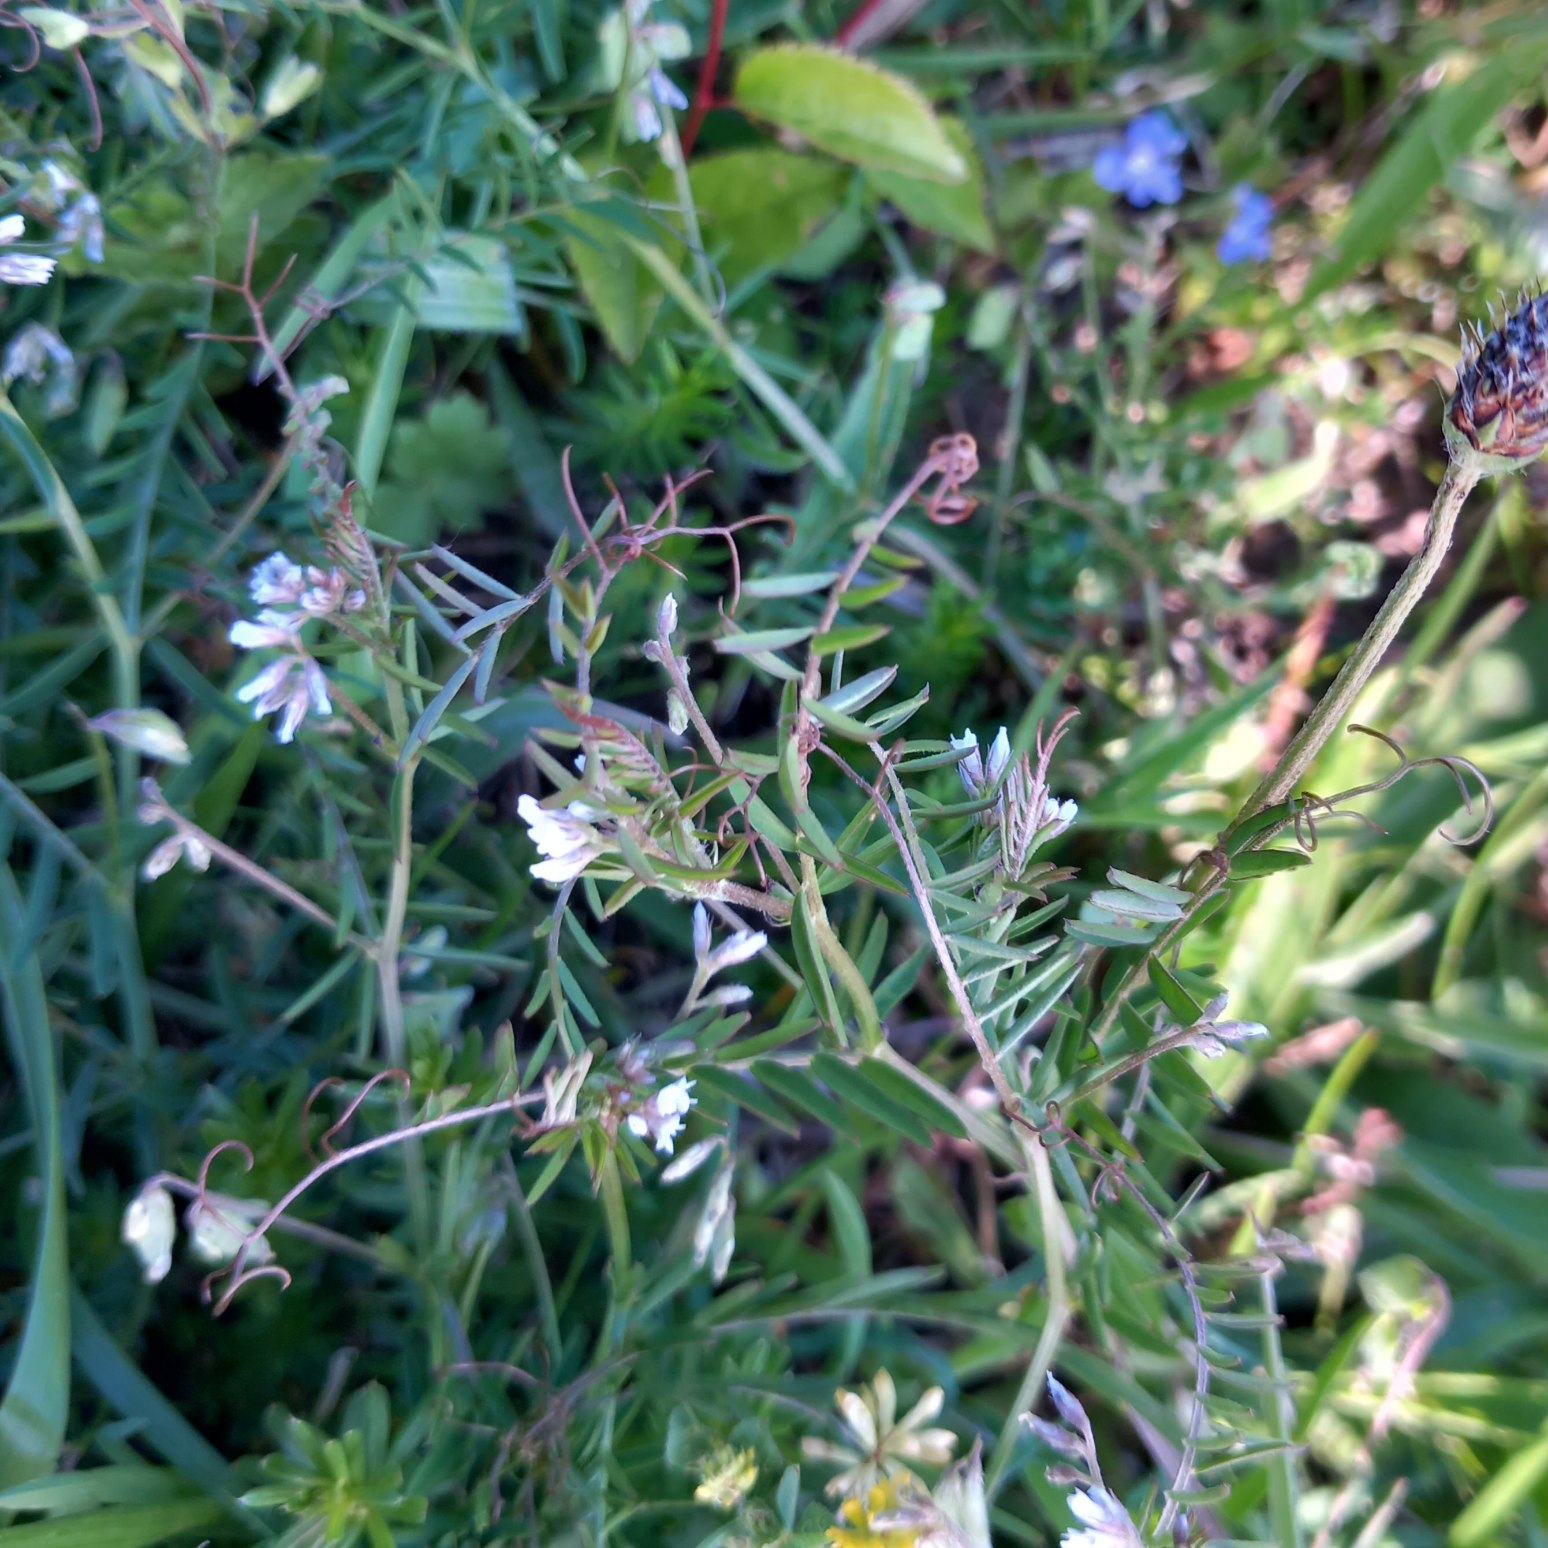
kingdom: Plantae
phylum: Tracheophyta
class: Magnoliopsida
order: Fabales
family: Fabaceae
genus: Vicia
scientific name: Vicia hirsuta
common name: Tofrøet vikke
